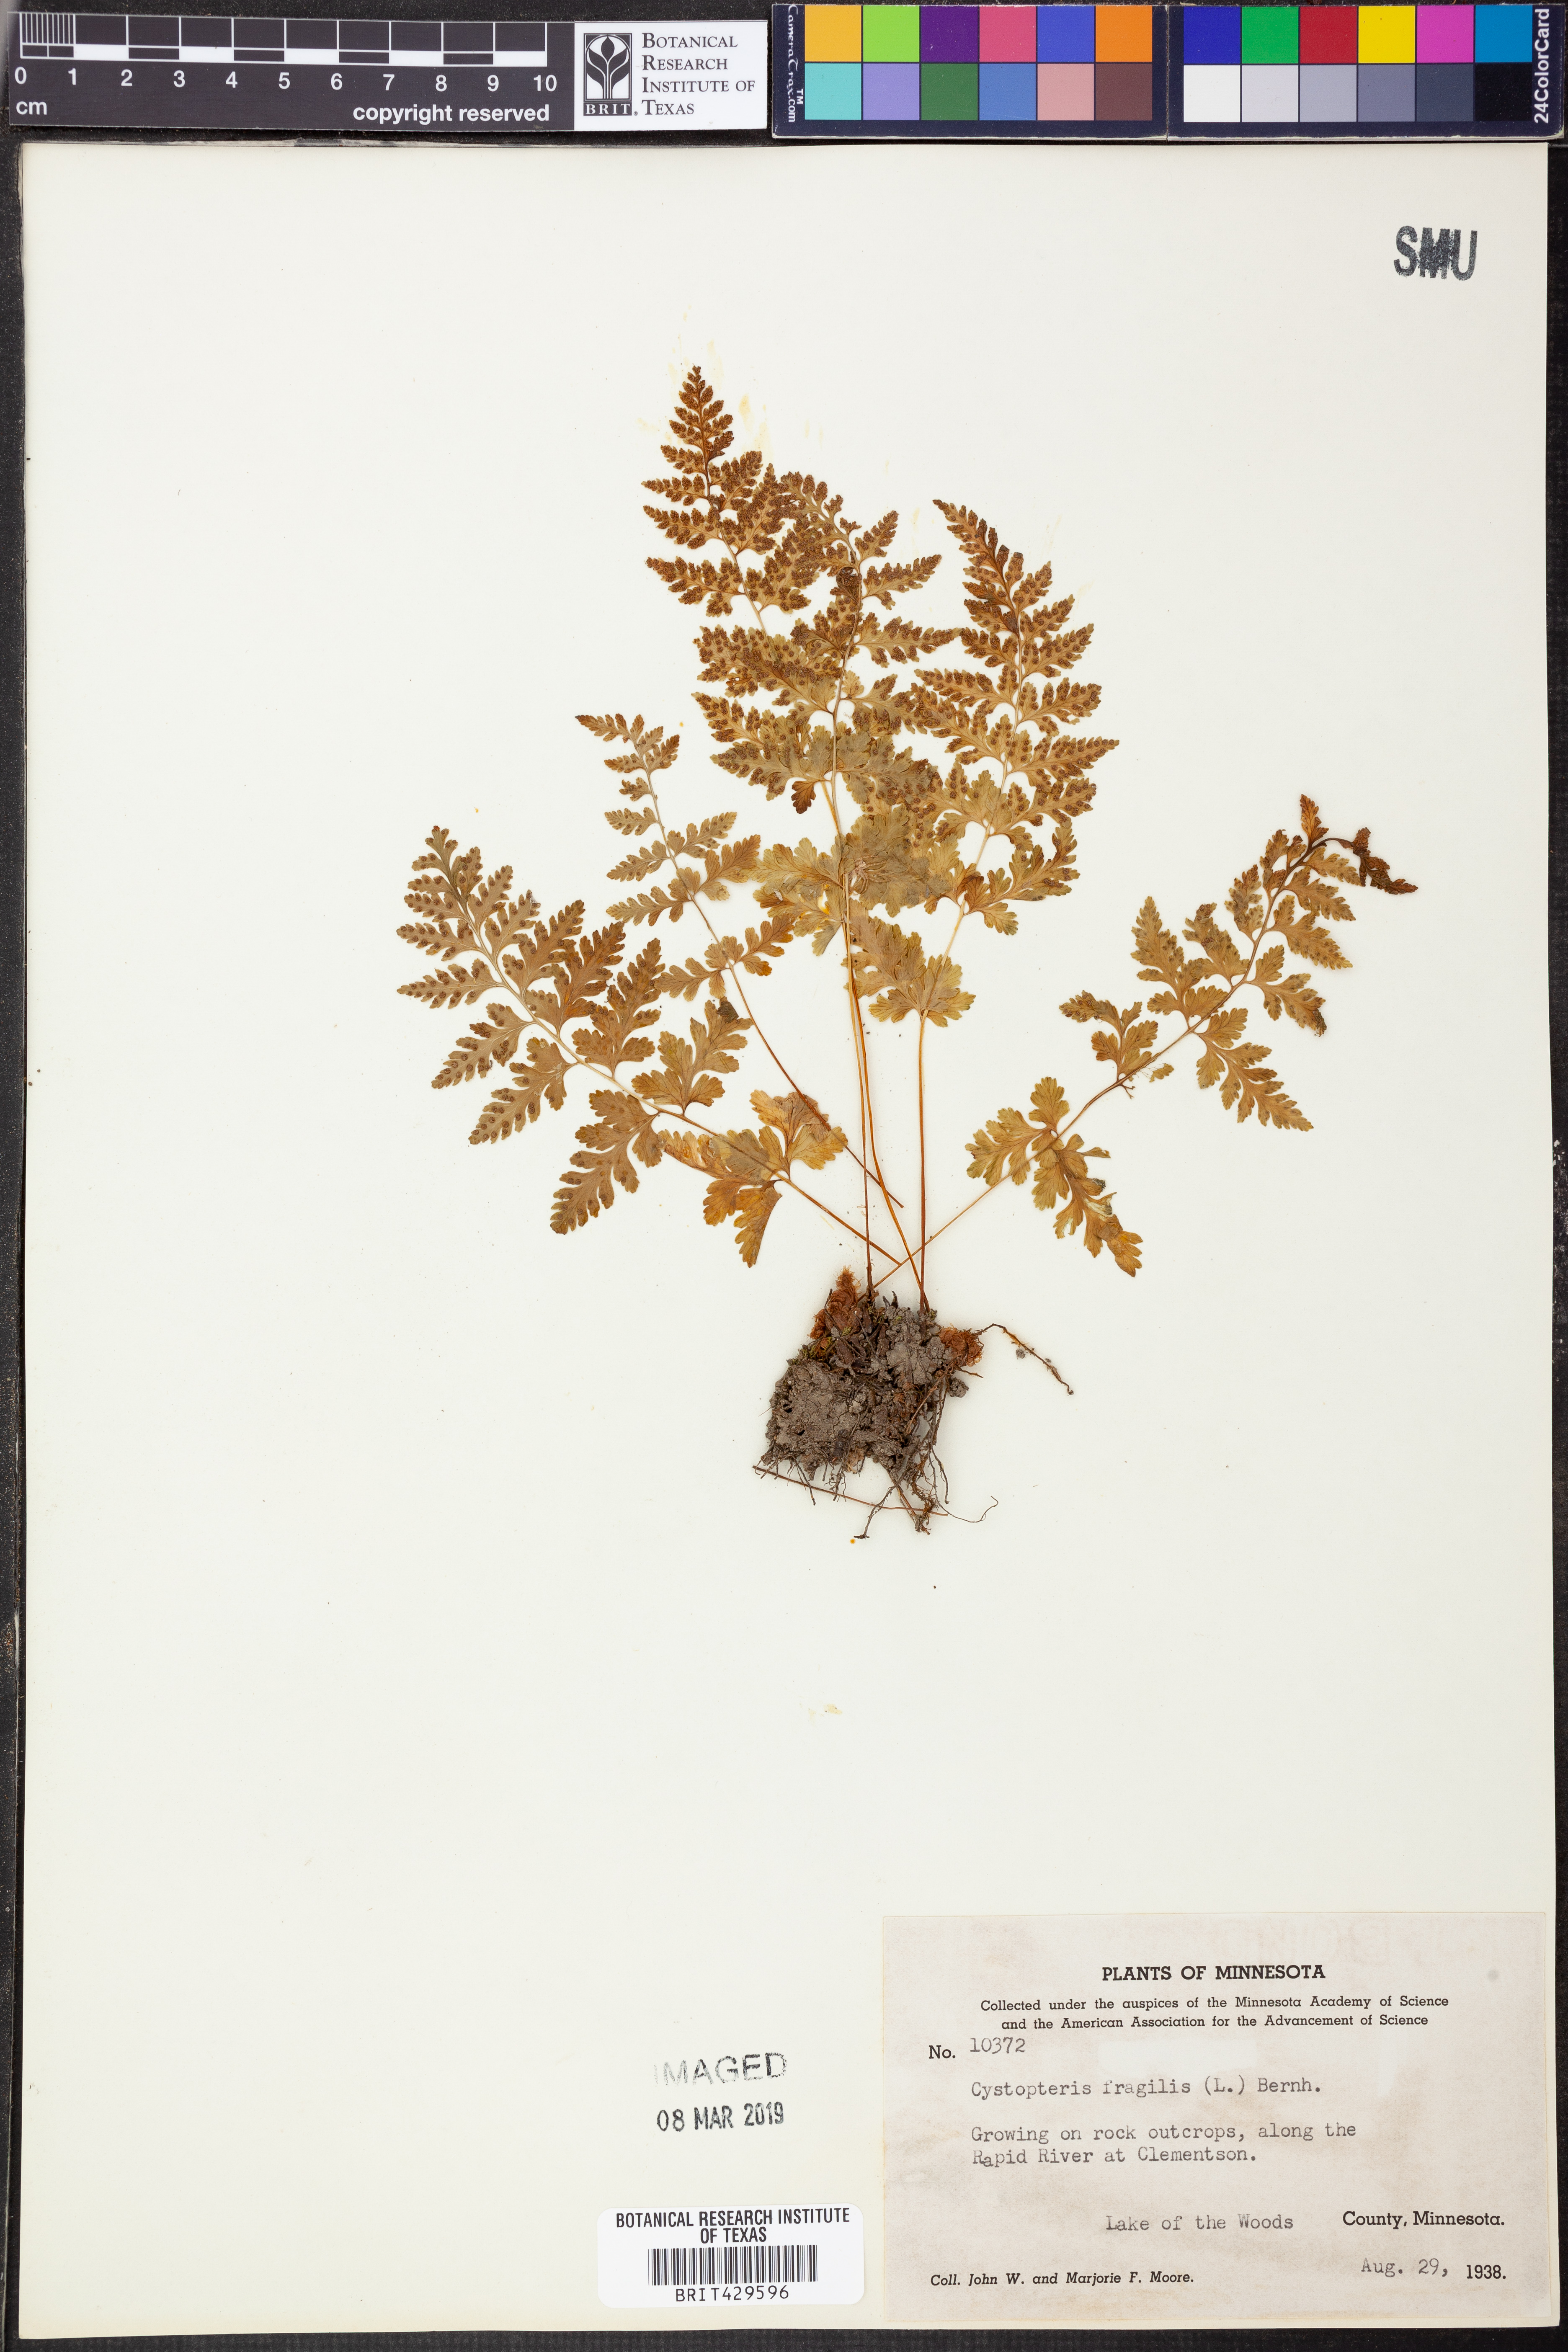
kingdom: Plantae
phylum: Tracheophyta
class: Polypodiopsida
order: Polypodiales
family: Cystopteridaceae
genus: Cystopteris
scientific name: Cystopteris fragilis
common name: Brittle bladder fern
